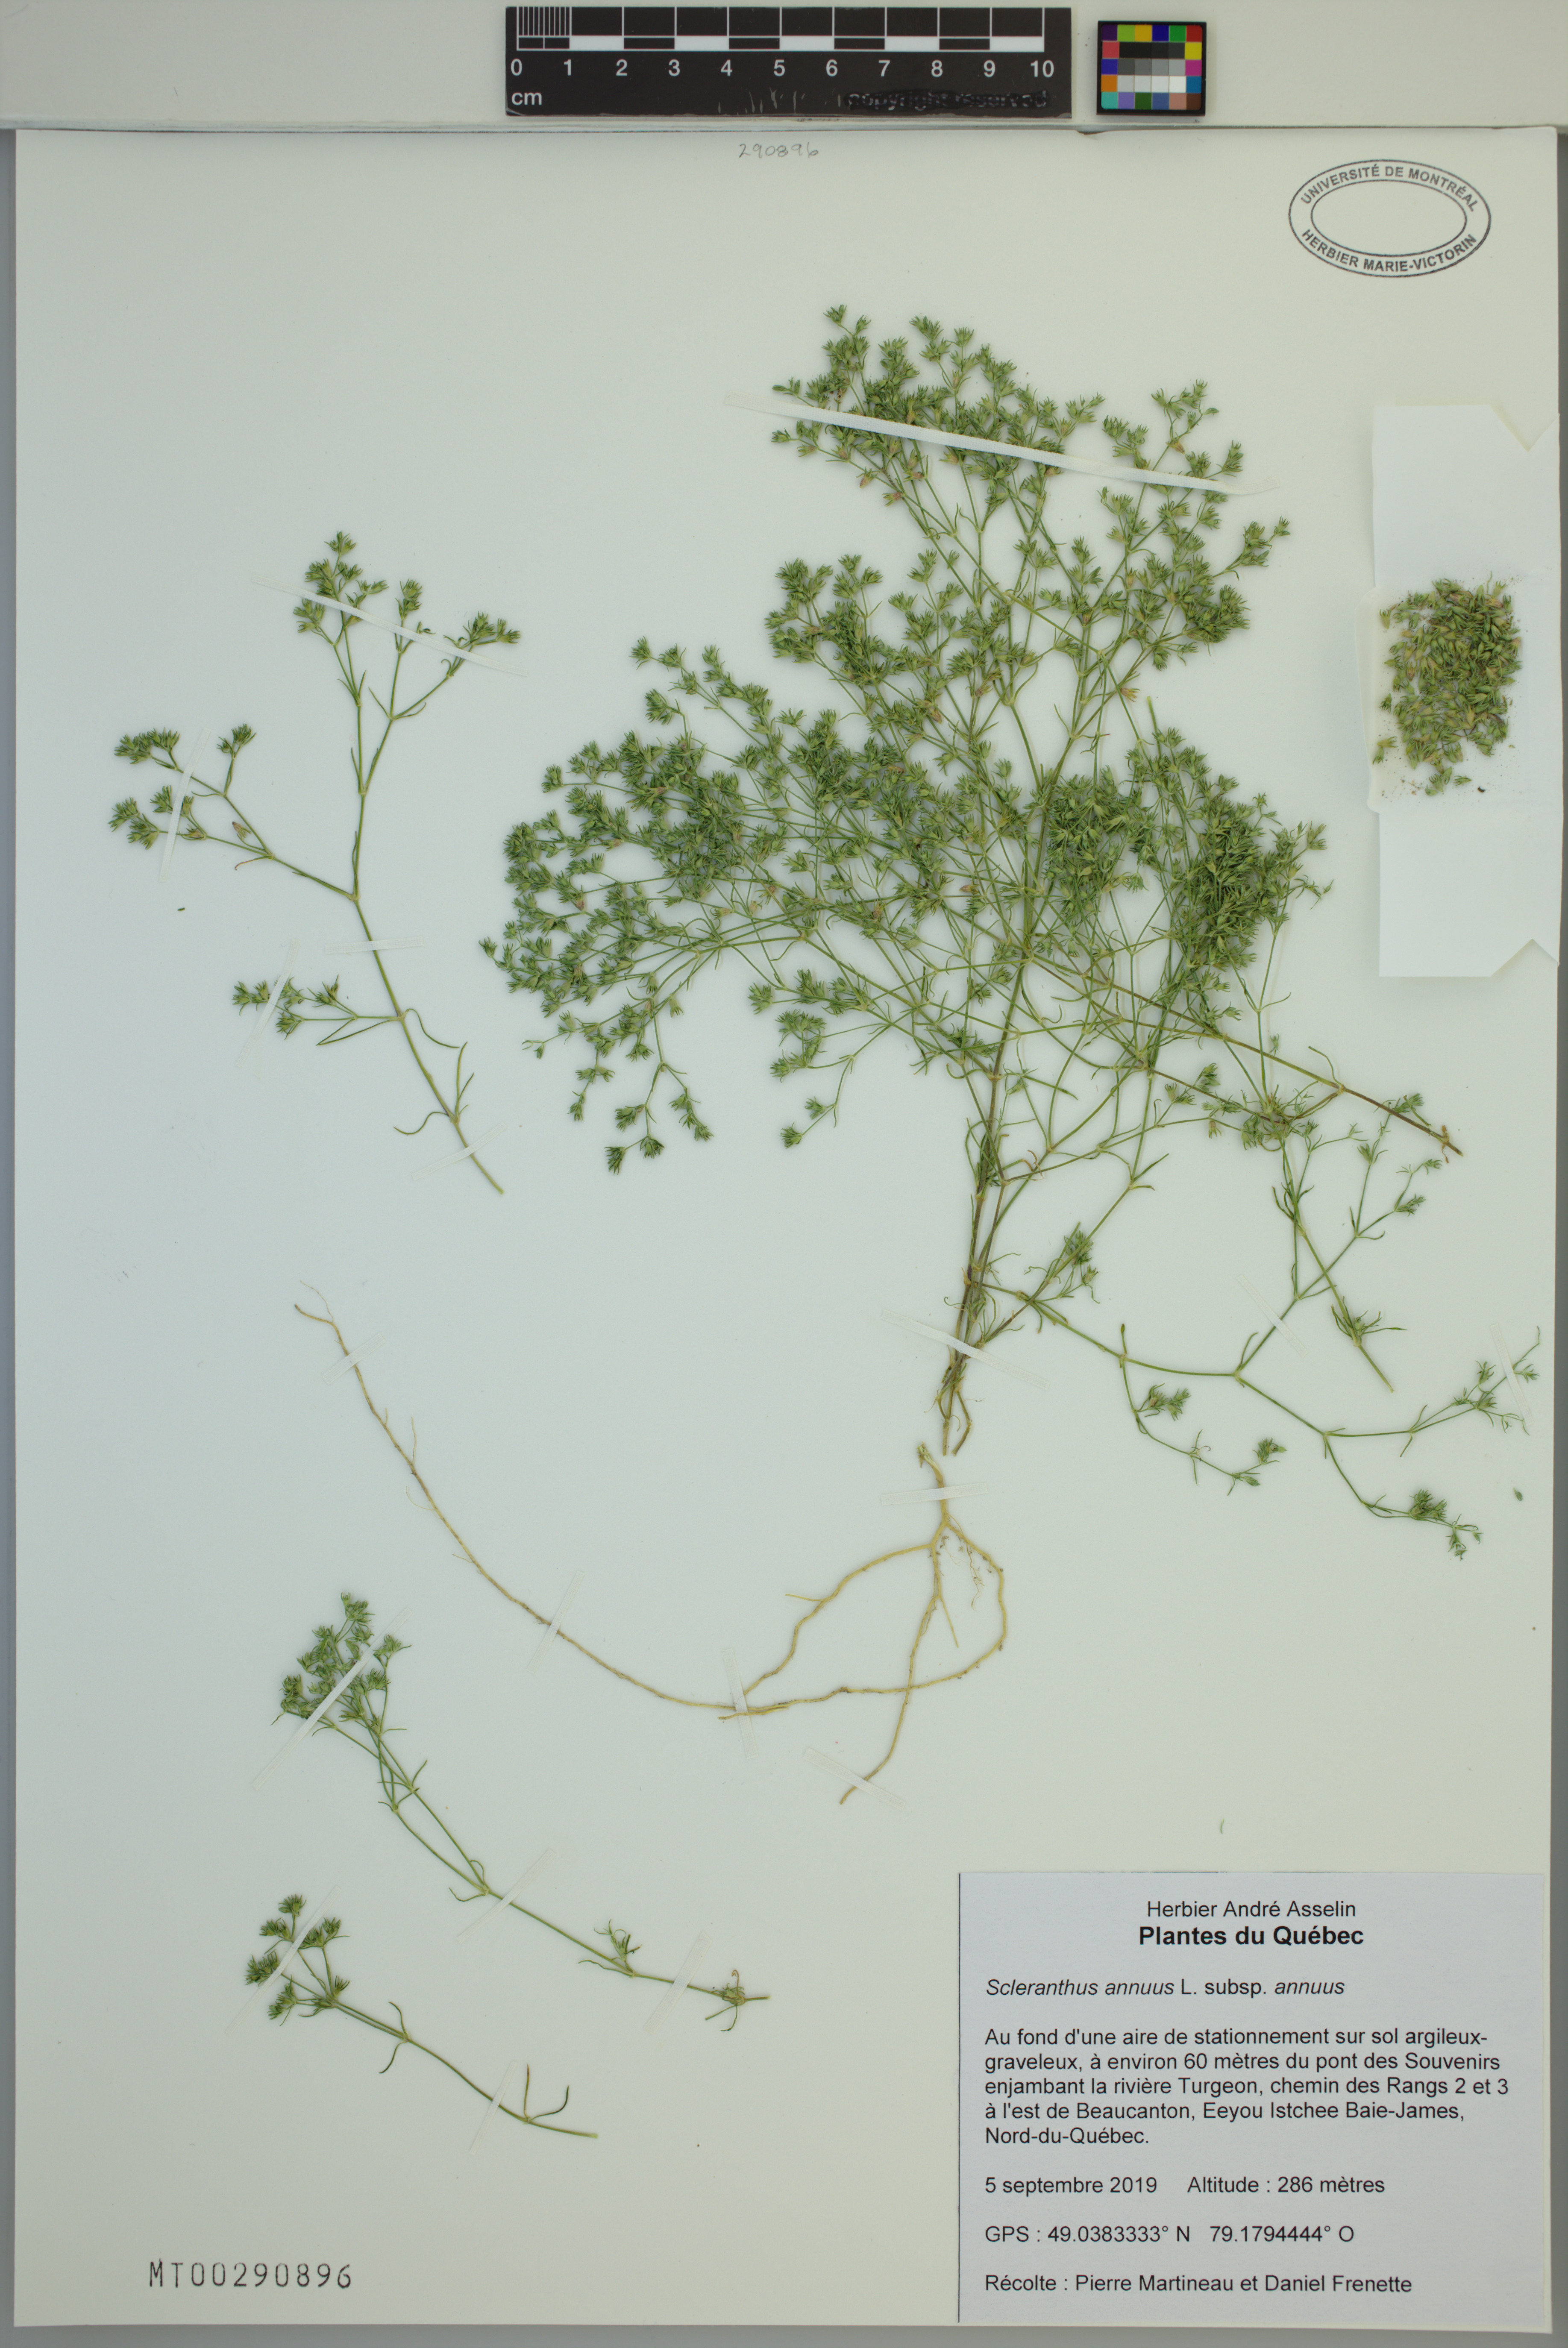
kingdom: Plantae
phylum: Tracheophyta
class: Magnoliopsida
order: Caryophyllales
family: Caryophyllaceae
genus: Scleranthus
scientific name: Scleranthus annuus
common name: Annual knawel
